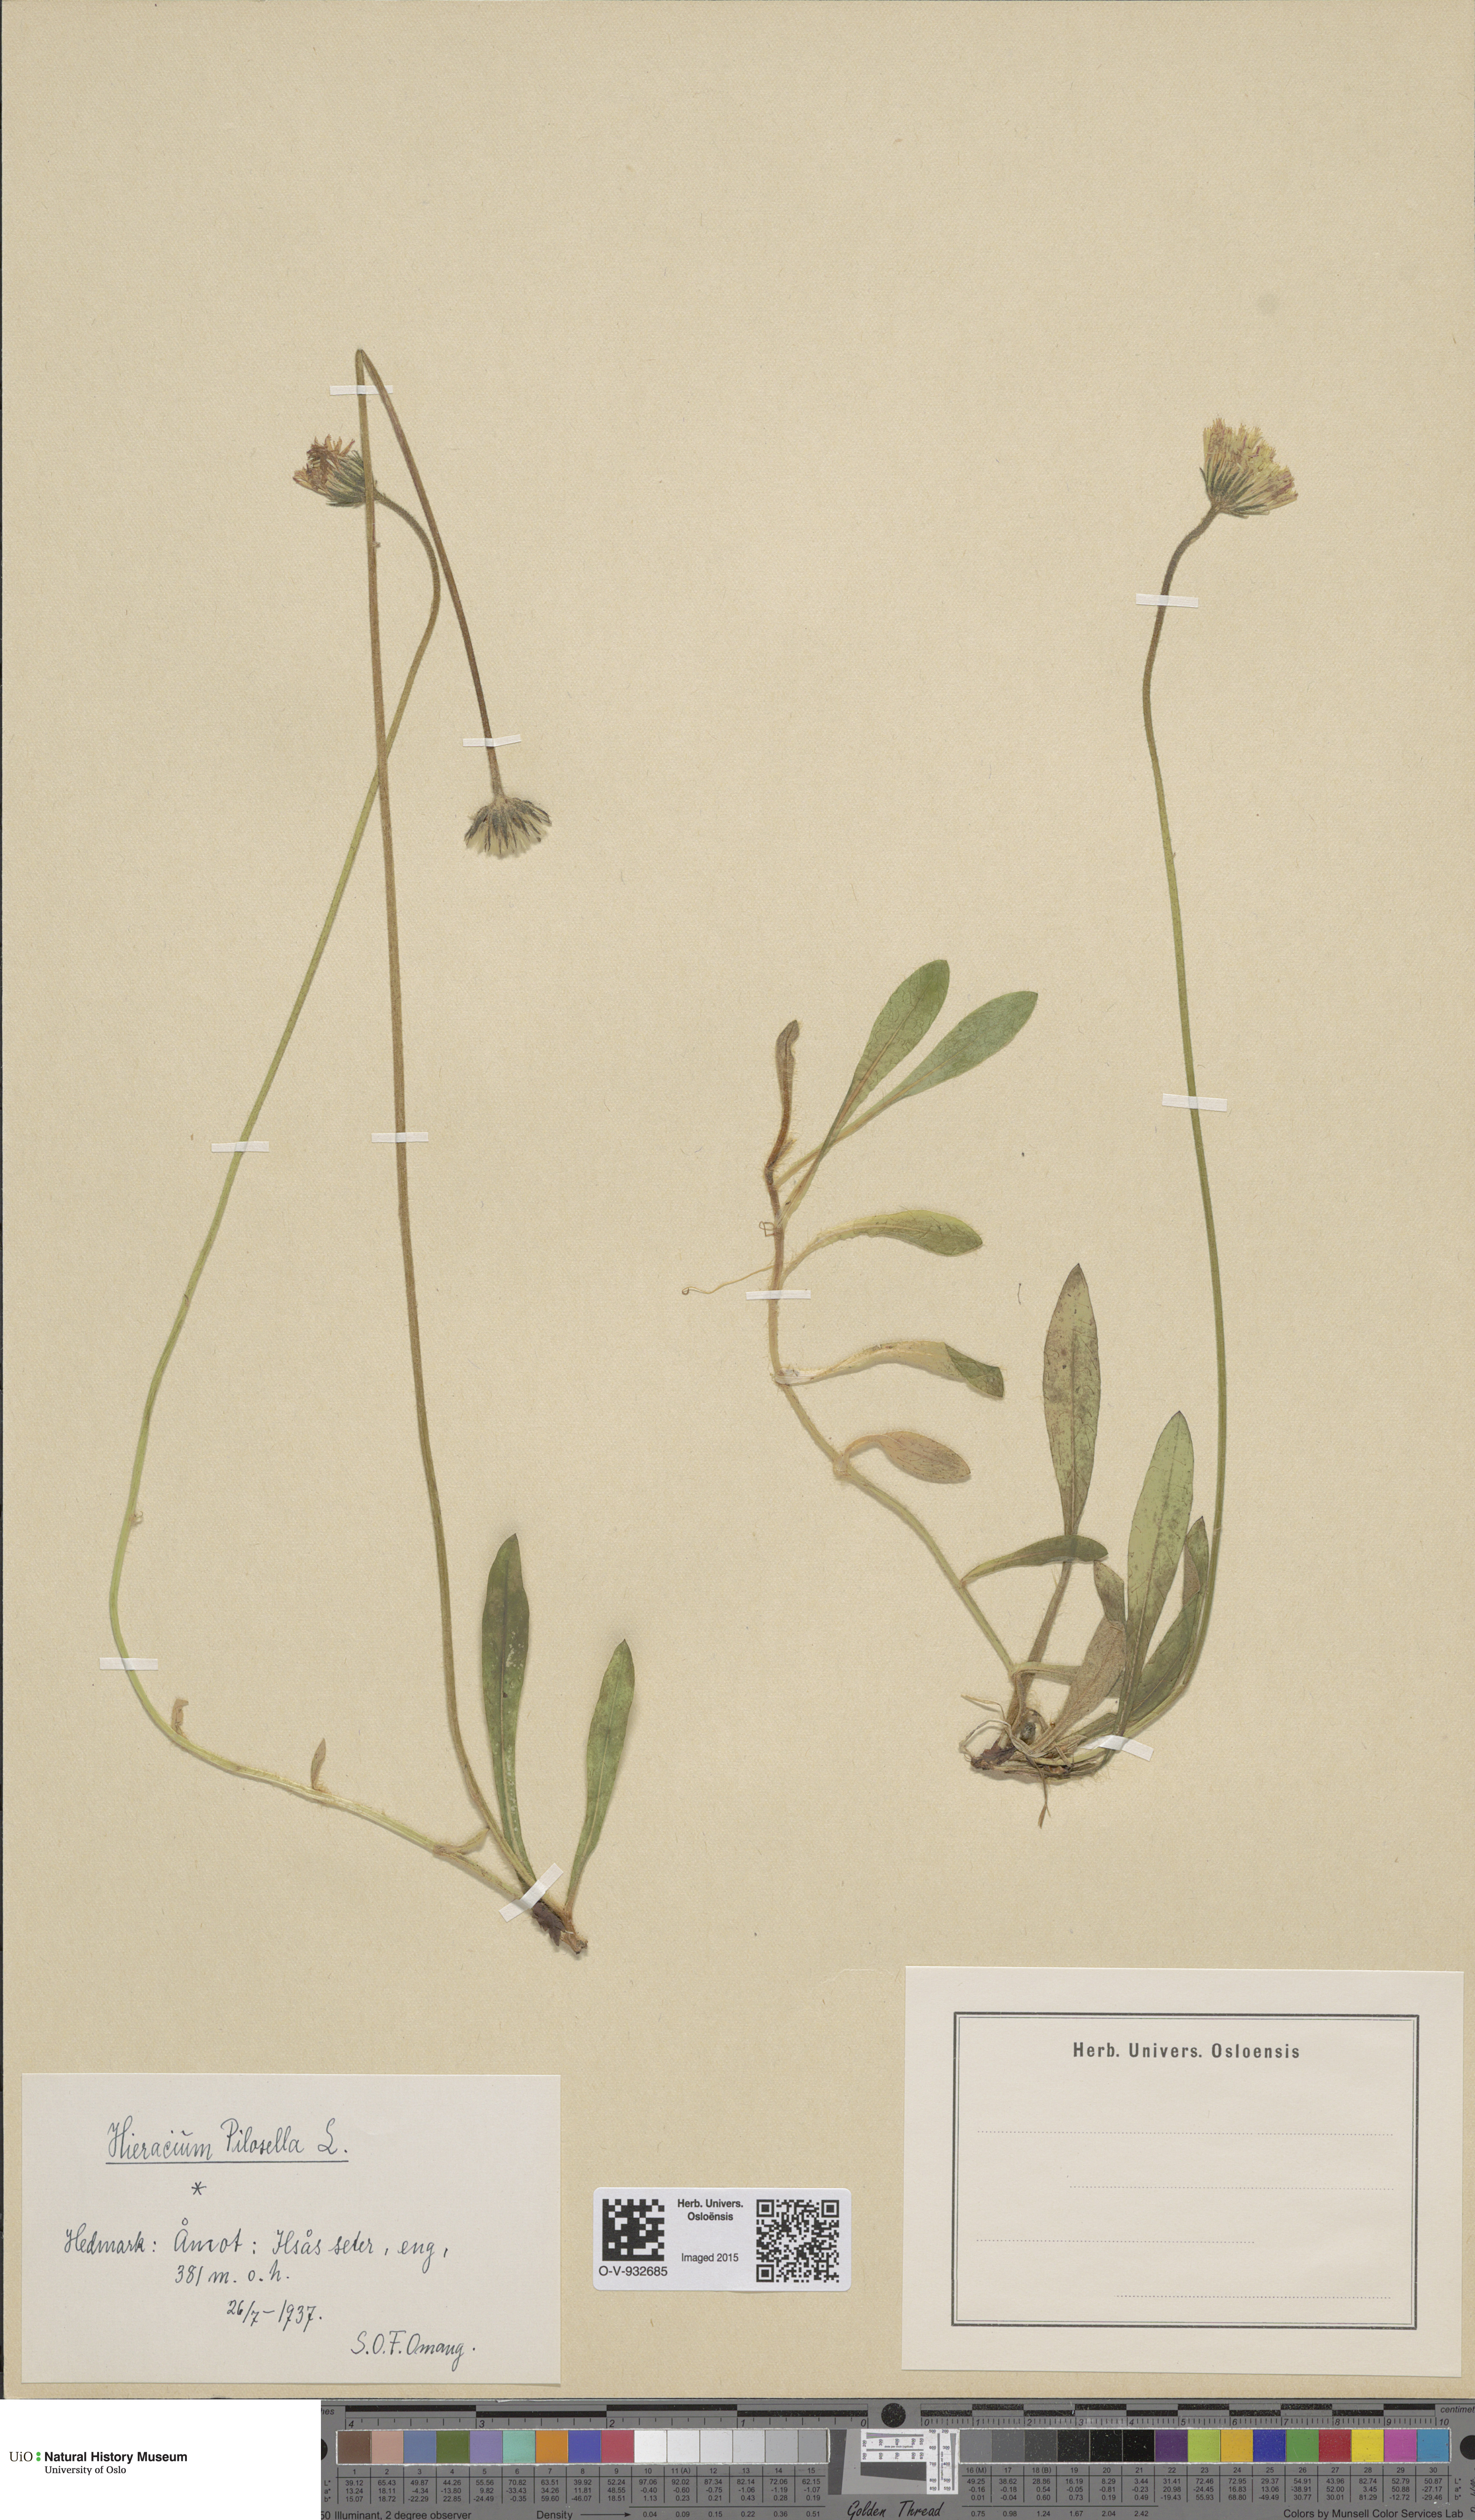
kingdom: Plantae
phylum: Tracheophyta
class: Magnoliopsida
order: Asterales
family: Asteraceae
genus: Pilosella
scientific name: Pilosella officinarum
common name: Mouse-ear hawkweed
